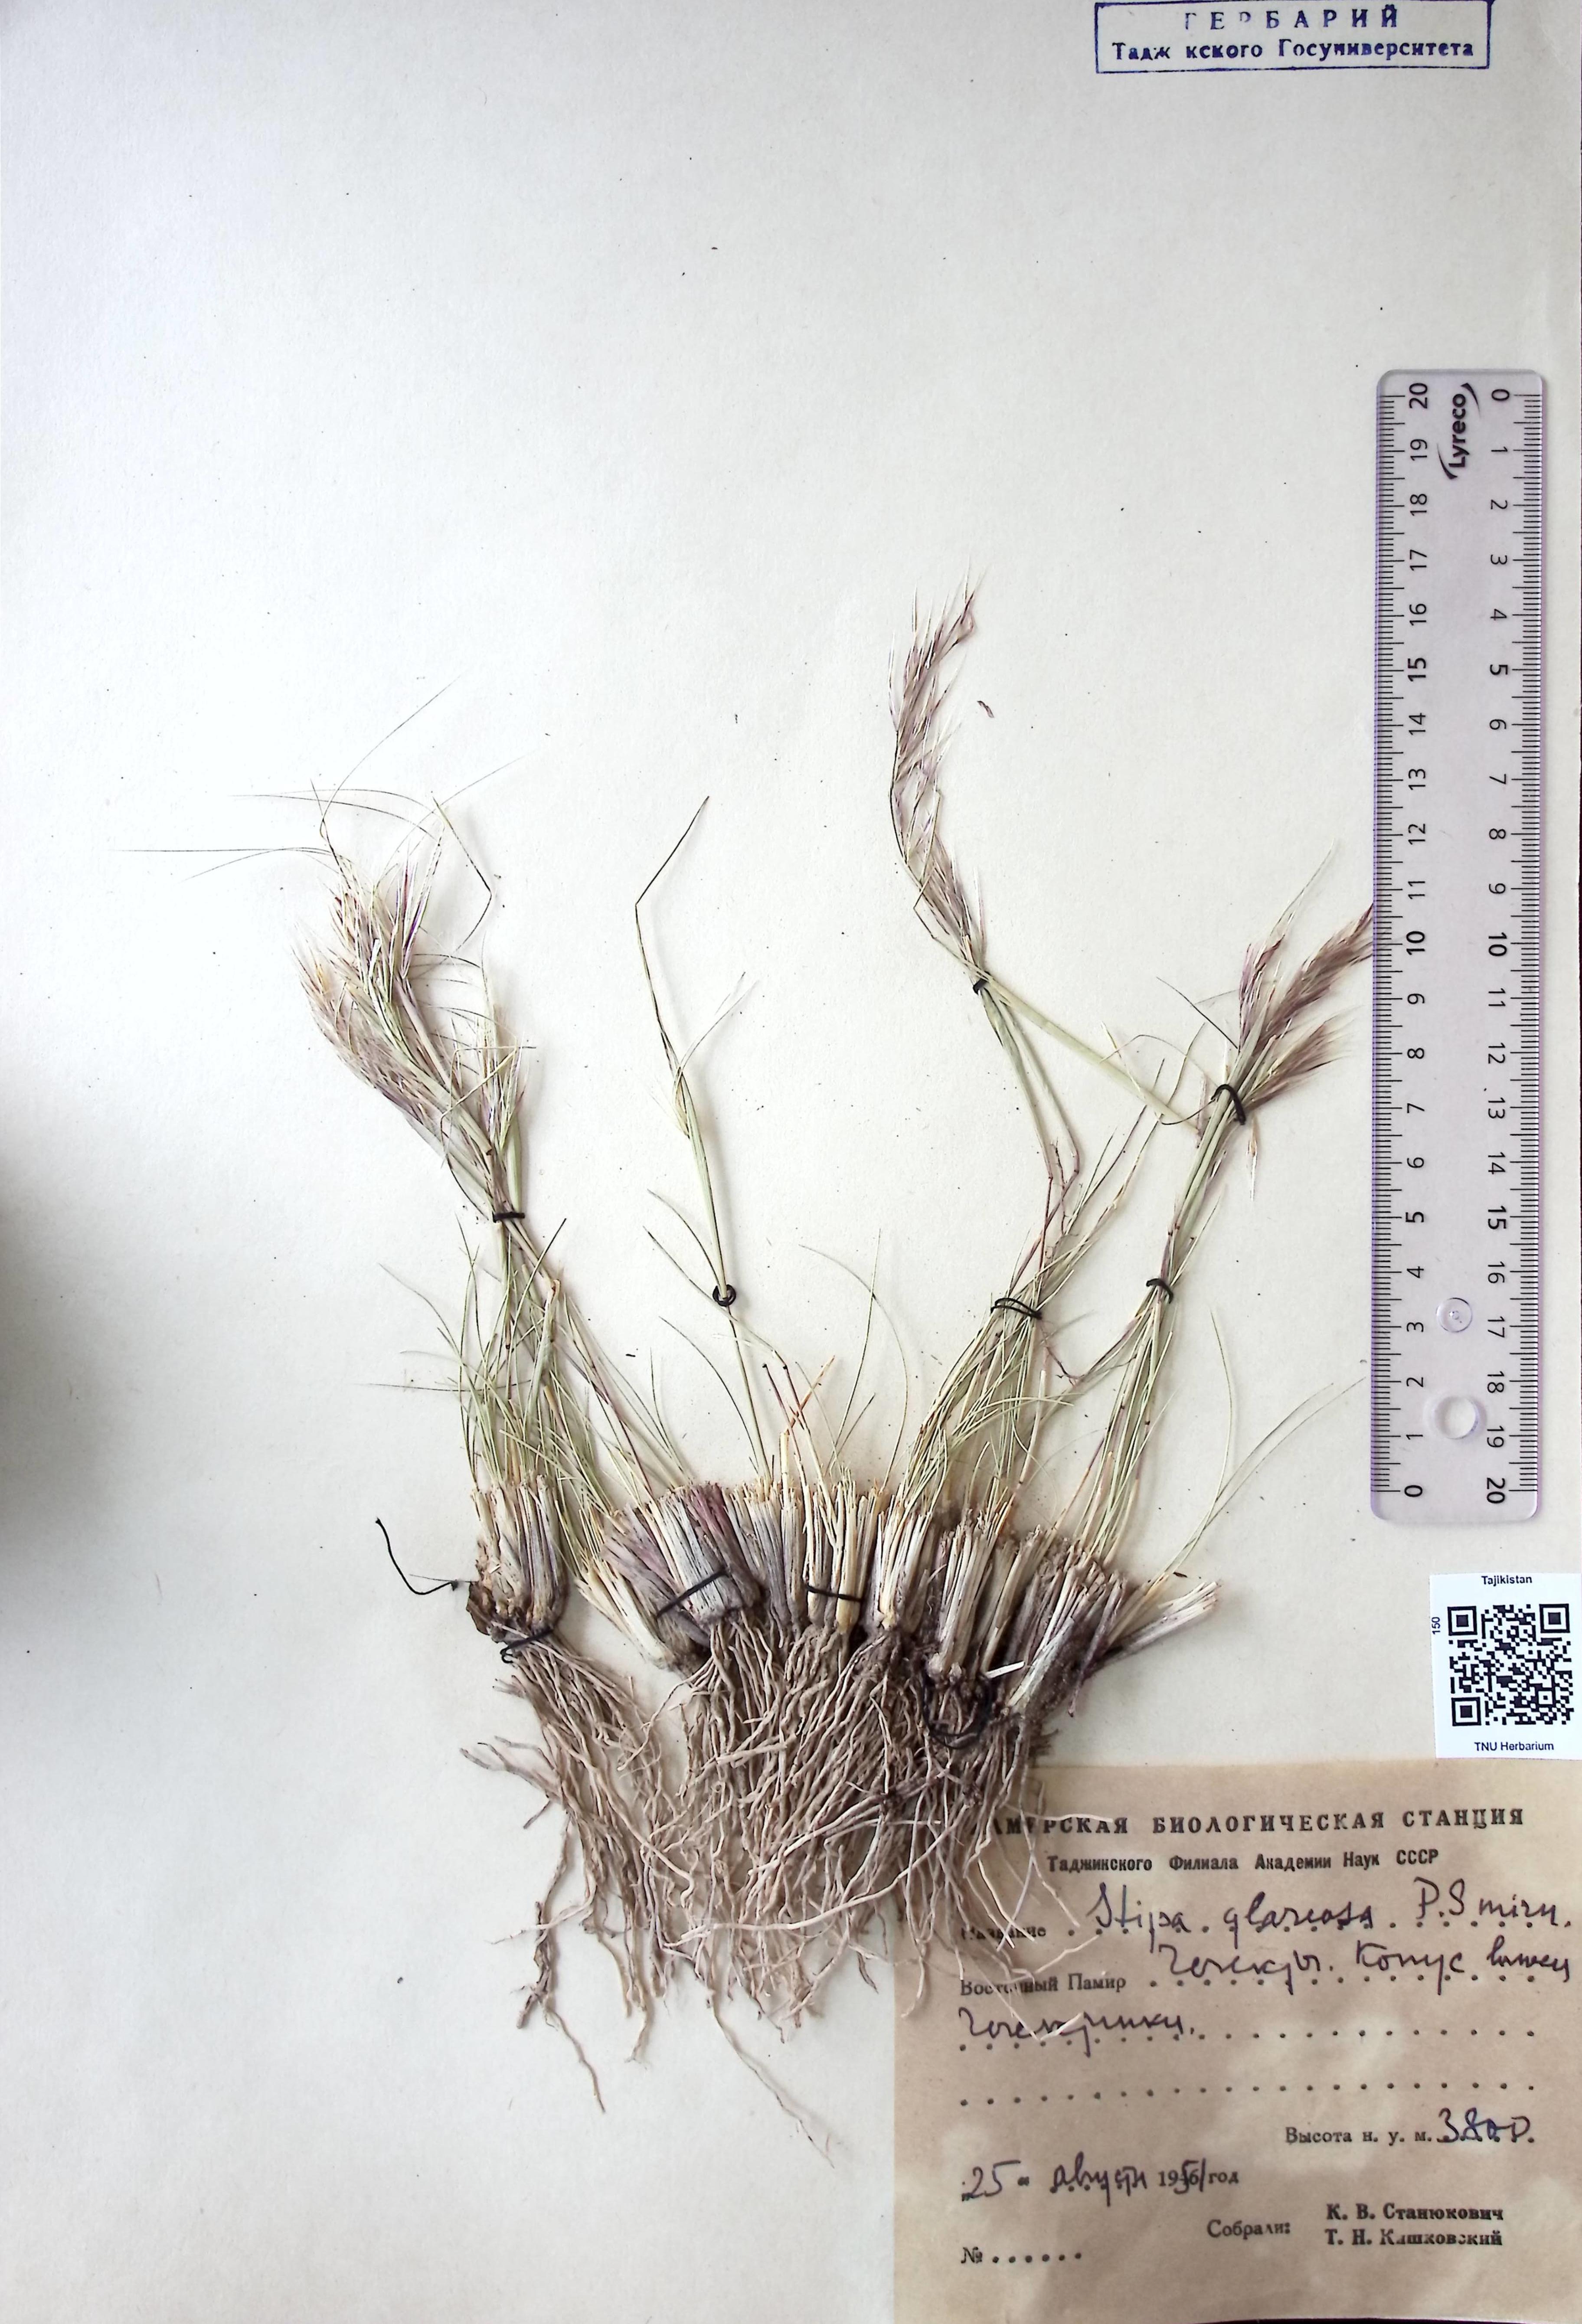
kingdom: Plantae
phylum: Tracheophyta
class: Liliopsida
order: Poales
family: Poaceae
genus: Stipa
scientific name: Stipa glareosa
